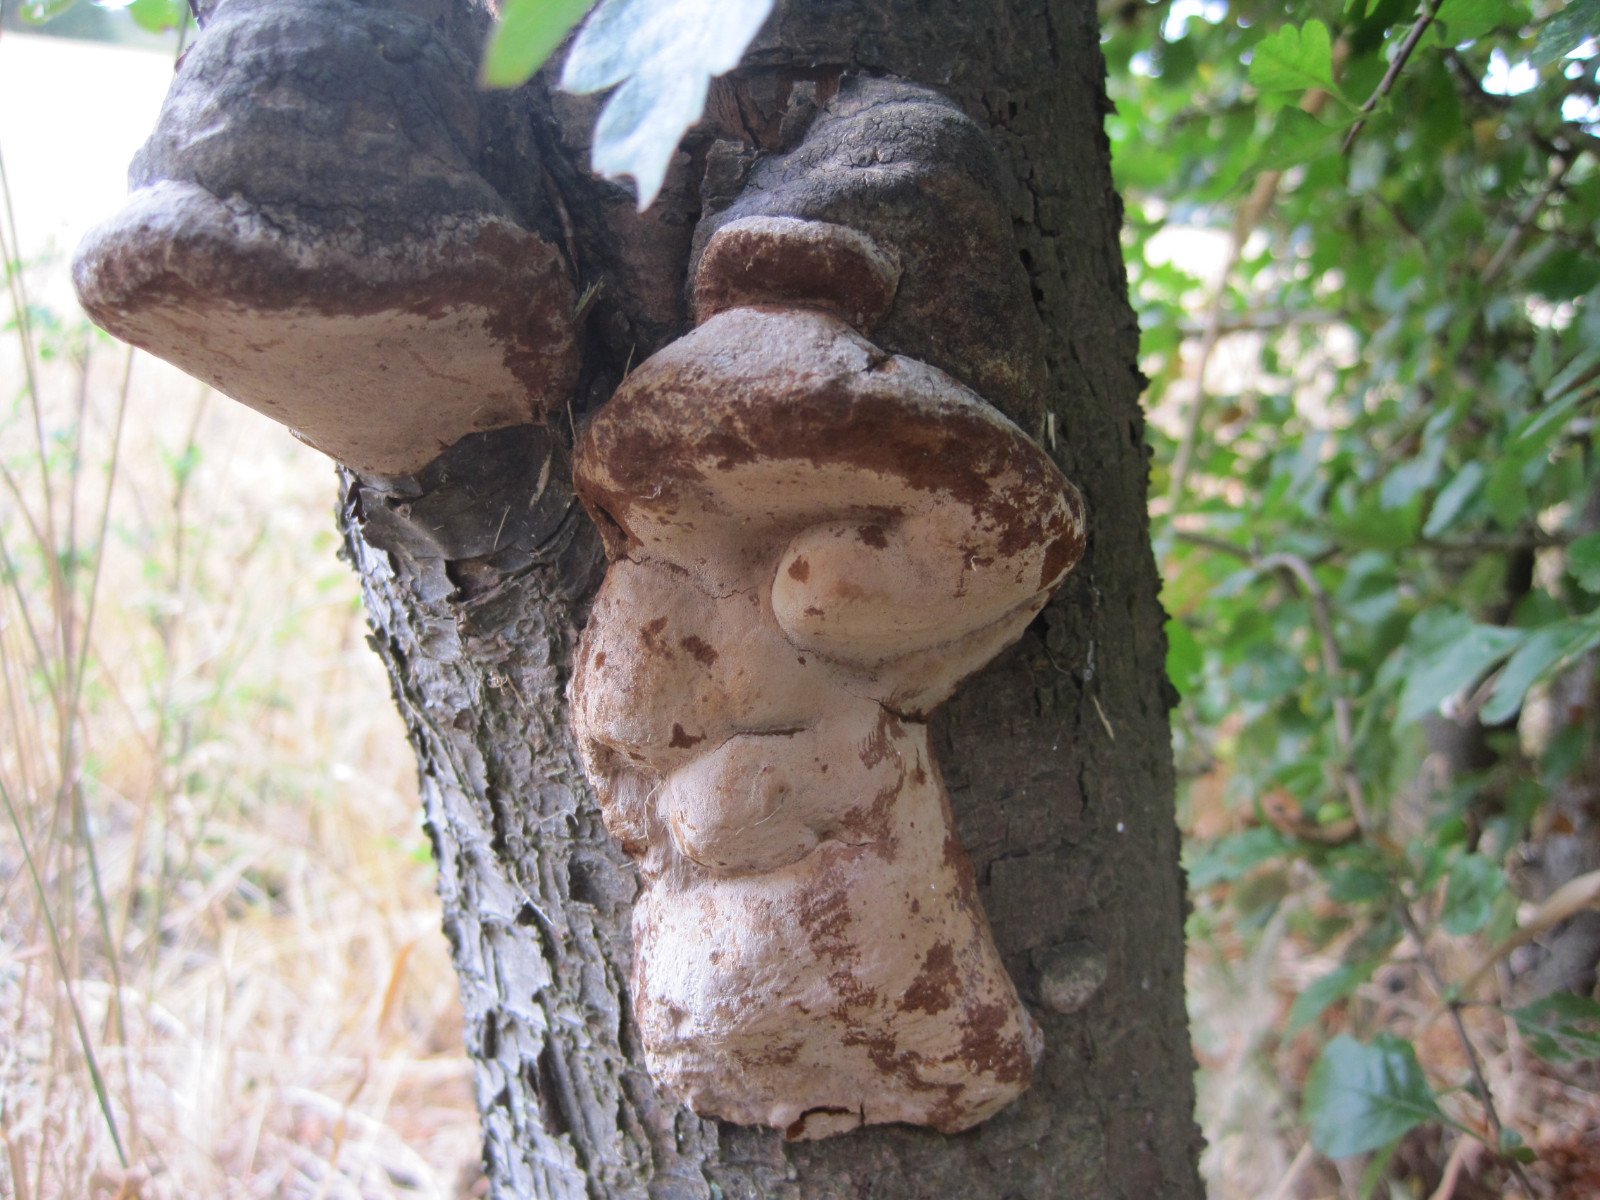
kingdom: Fungi
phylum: Basidiomycota
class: Agaricomycetes
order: Hymenochaetales
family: Hymenochaetaceae
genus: Phellinus
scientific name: Phellinus pomaceus
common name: blomme-ildporesvamp
